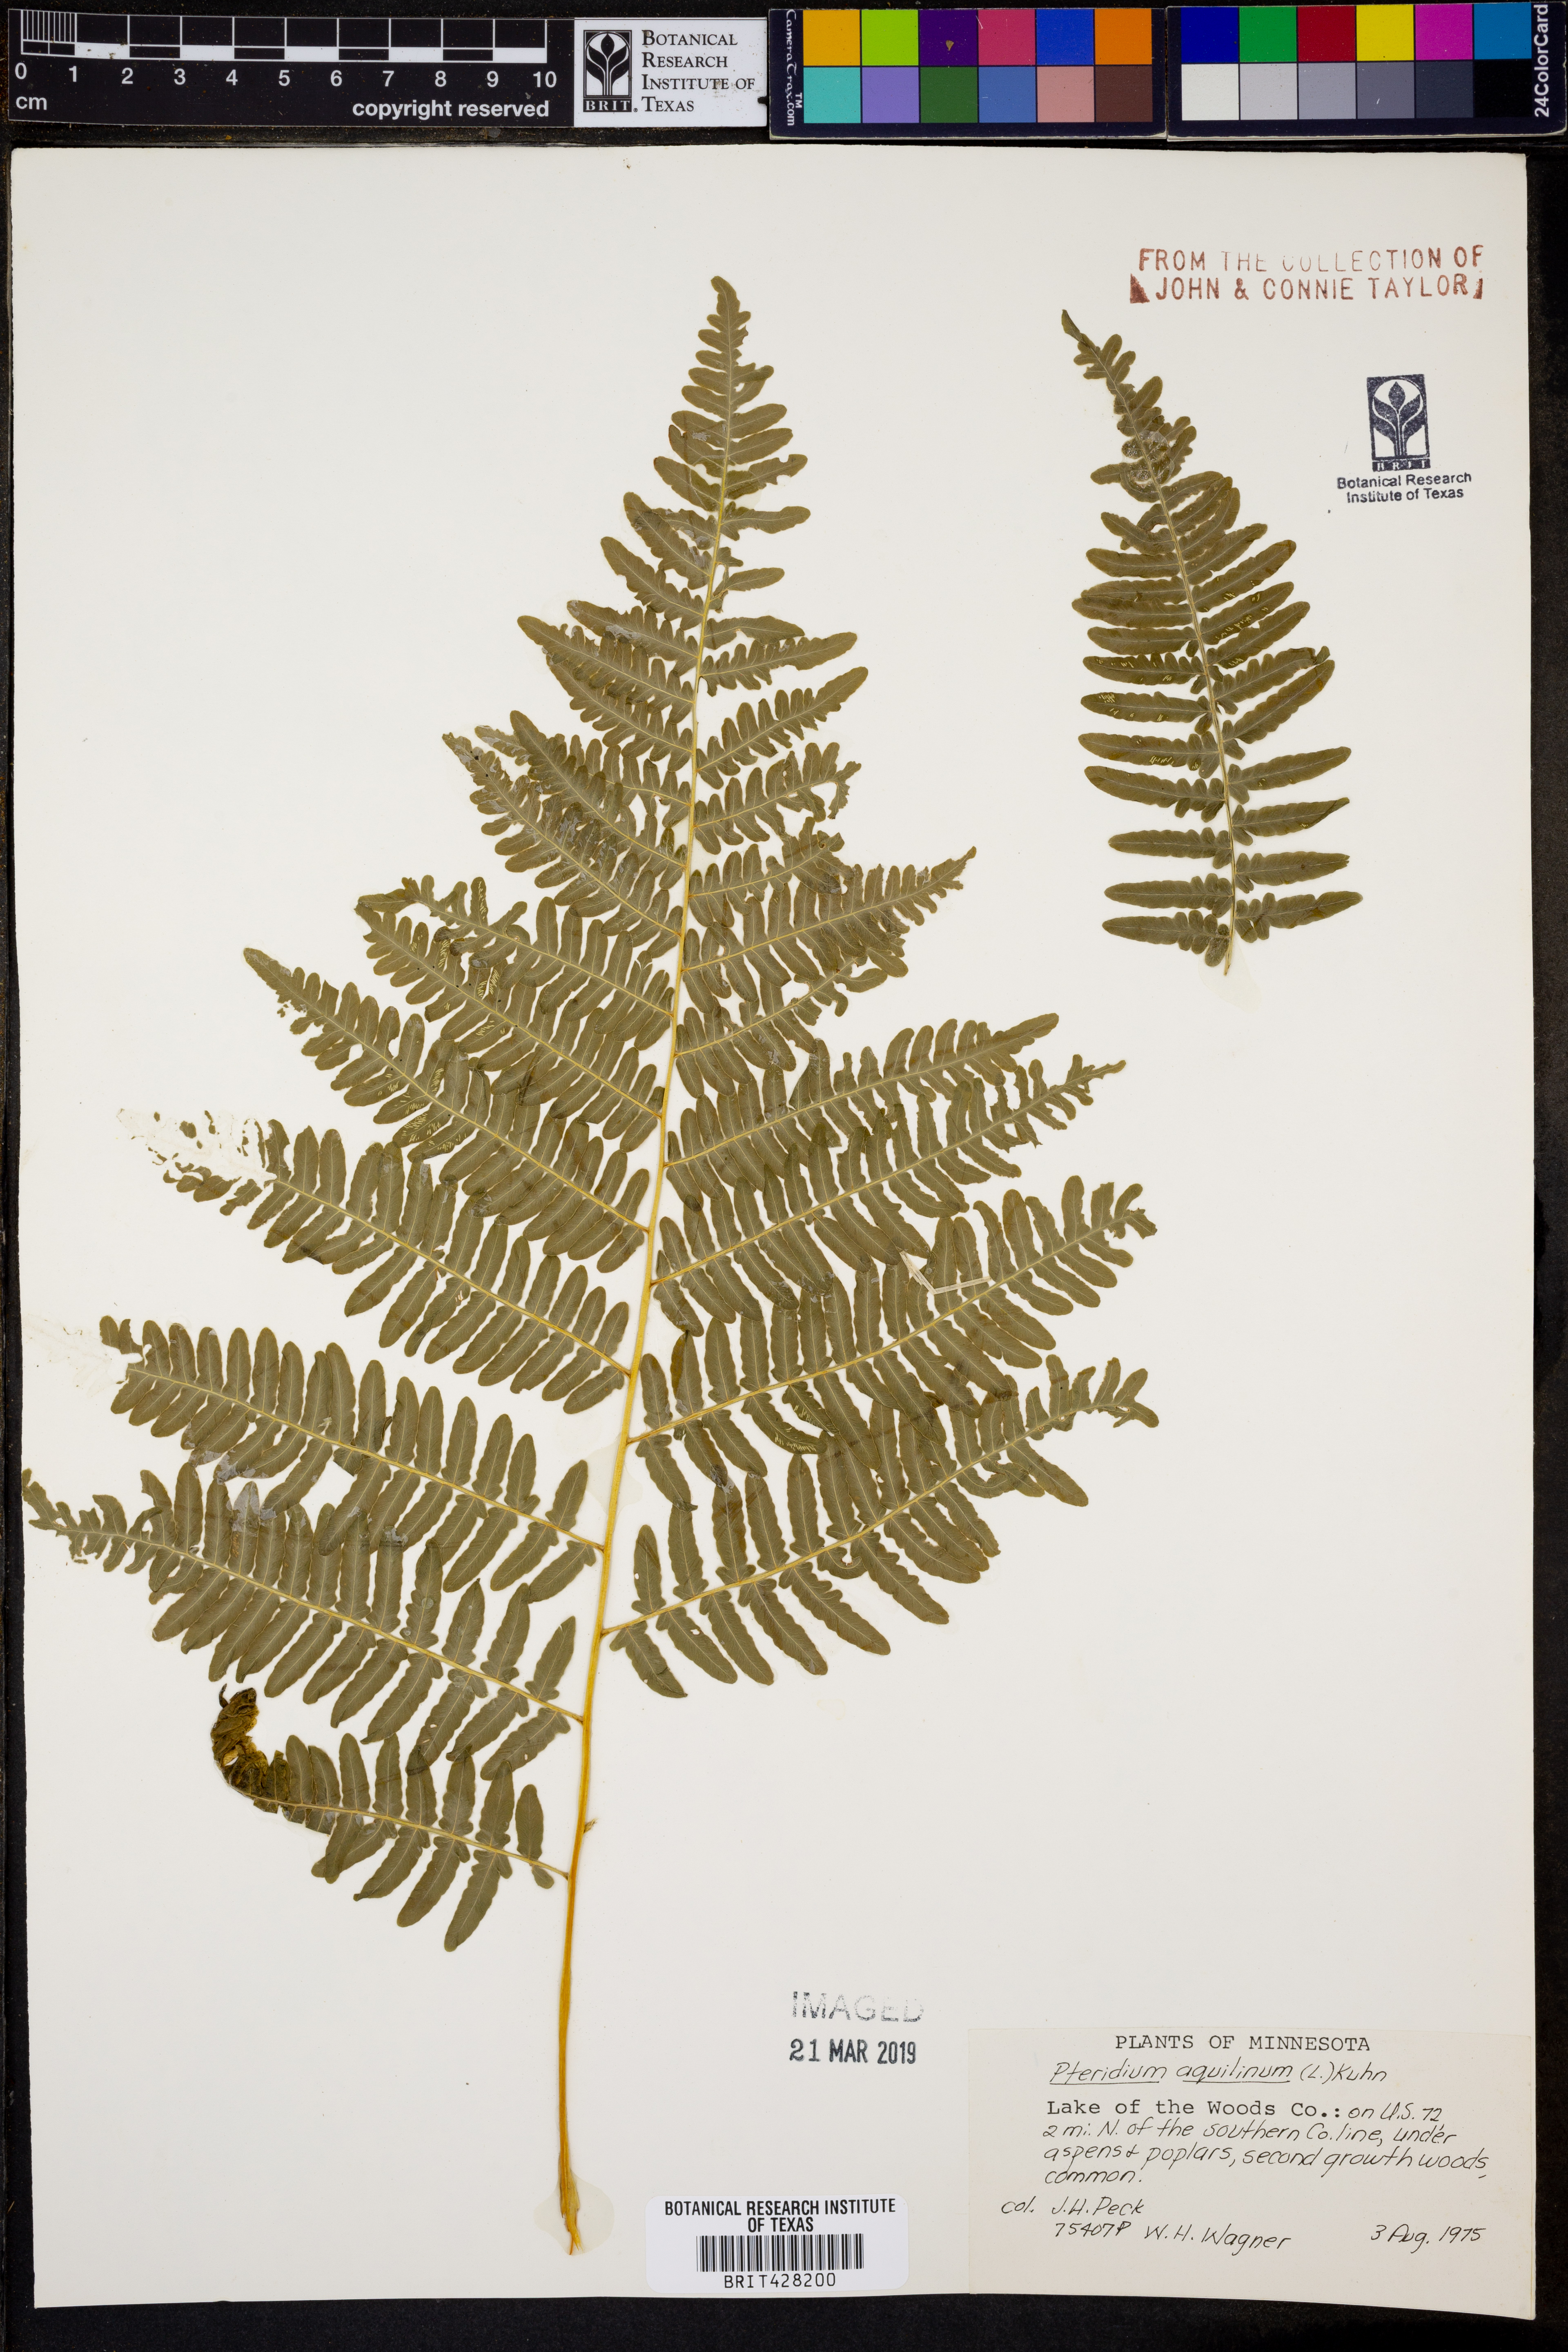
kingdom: Plantae
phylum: Tracheophyta
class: Polypodiopsida
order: Polypodiales
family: Dennstaedtiaceae
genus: Pteridium
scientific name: Pteridium aquilinum
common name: Bracken
